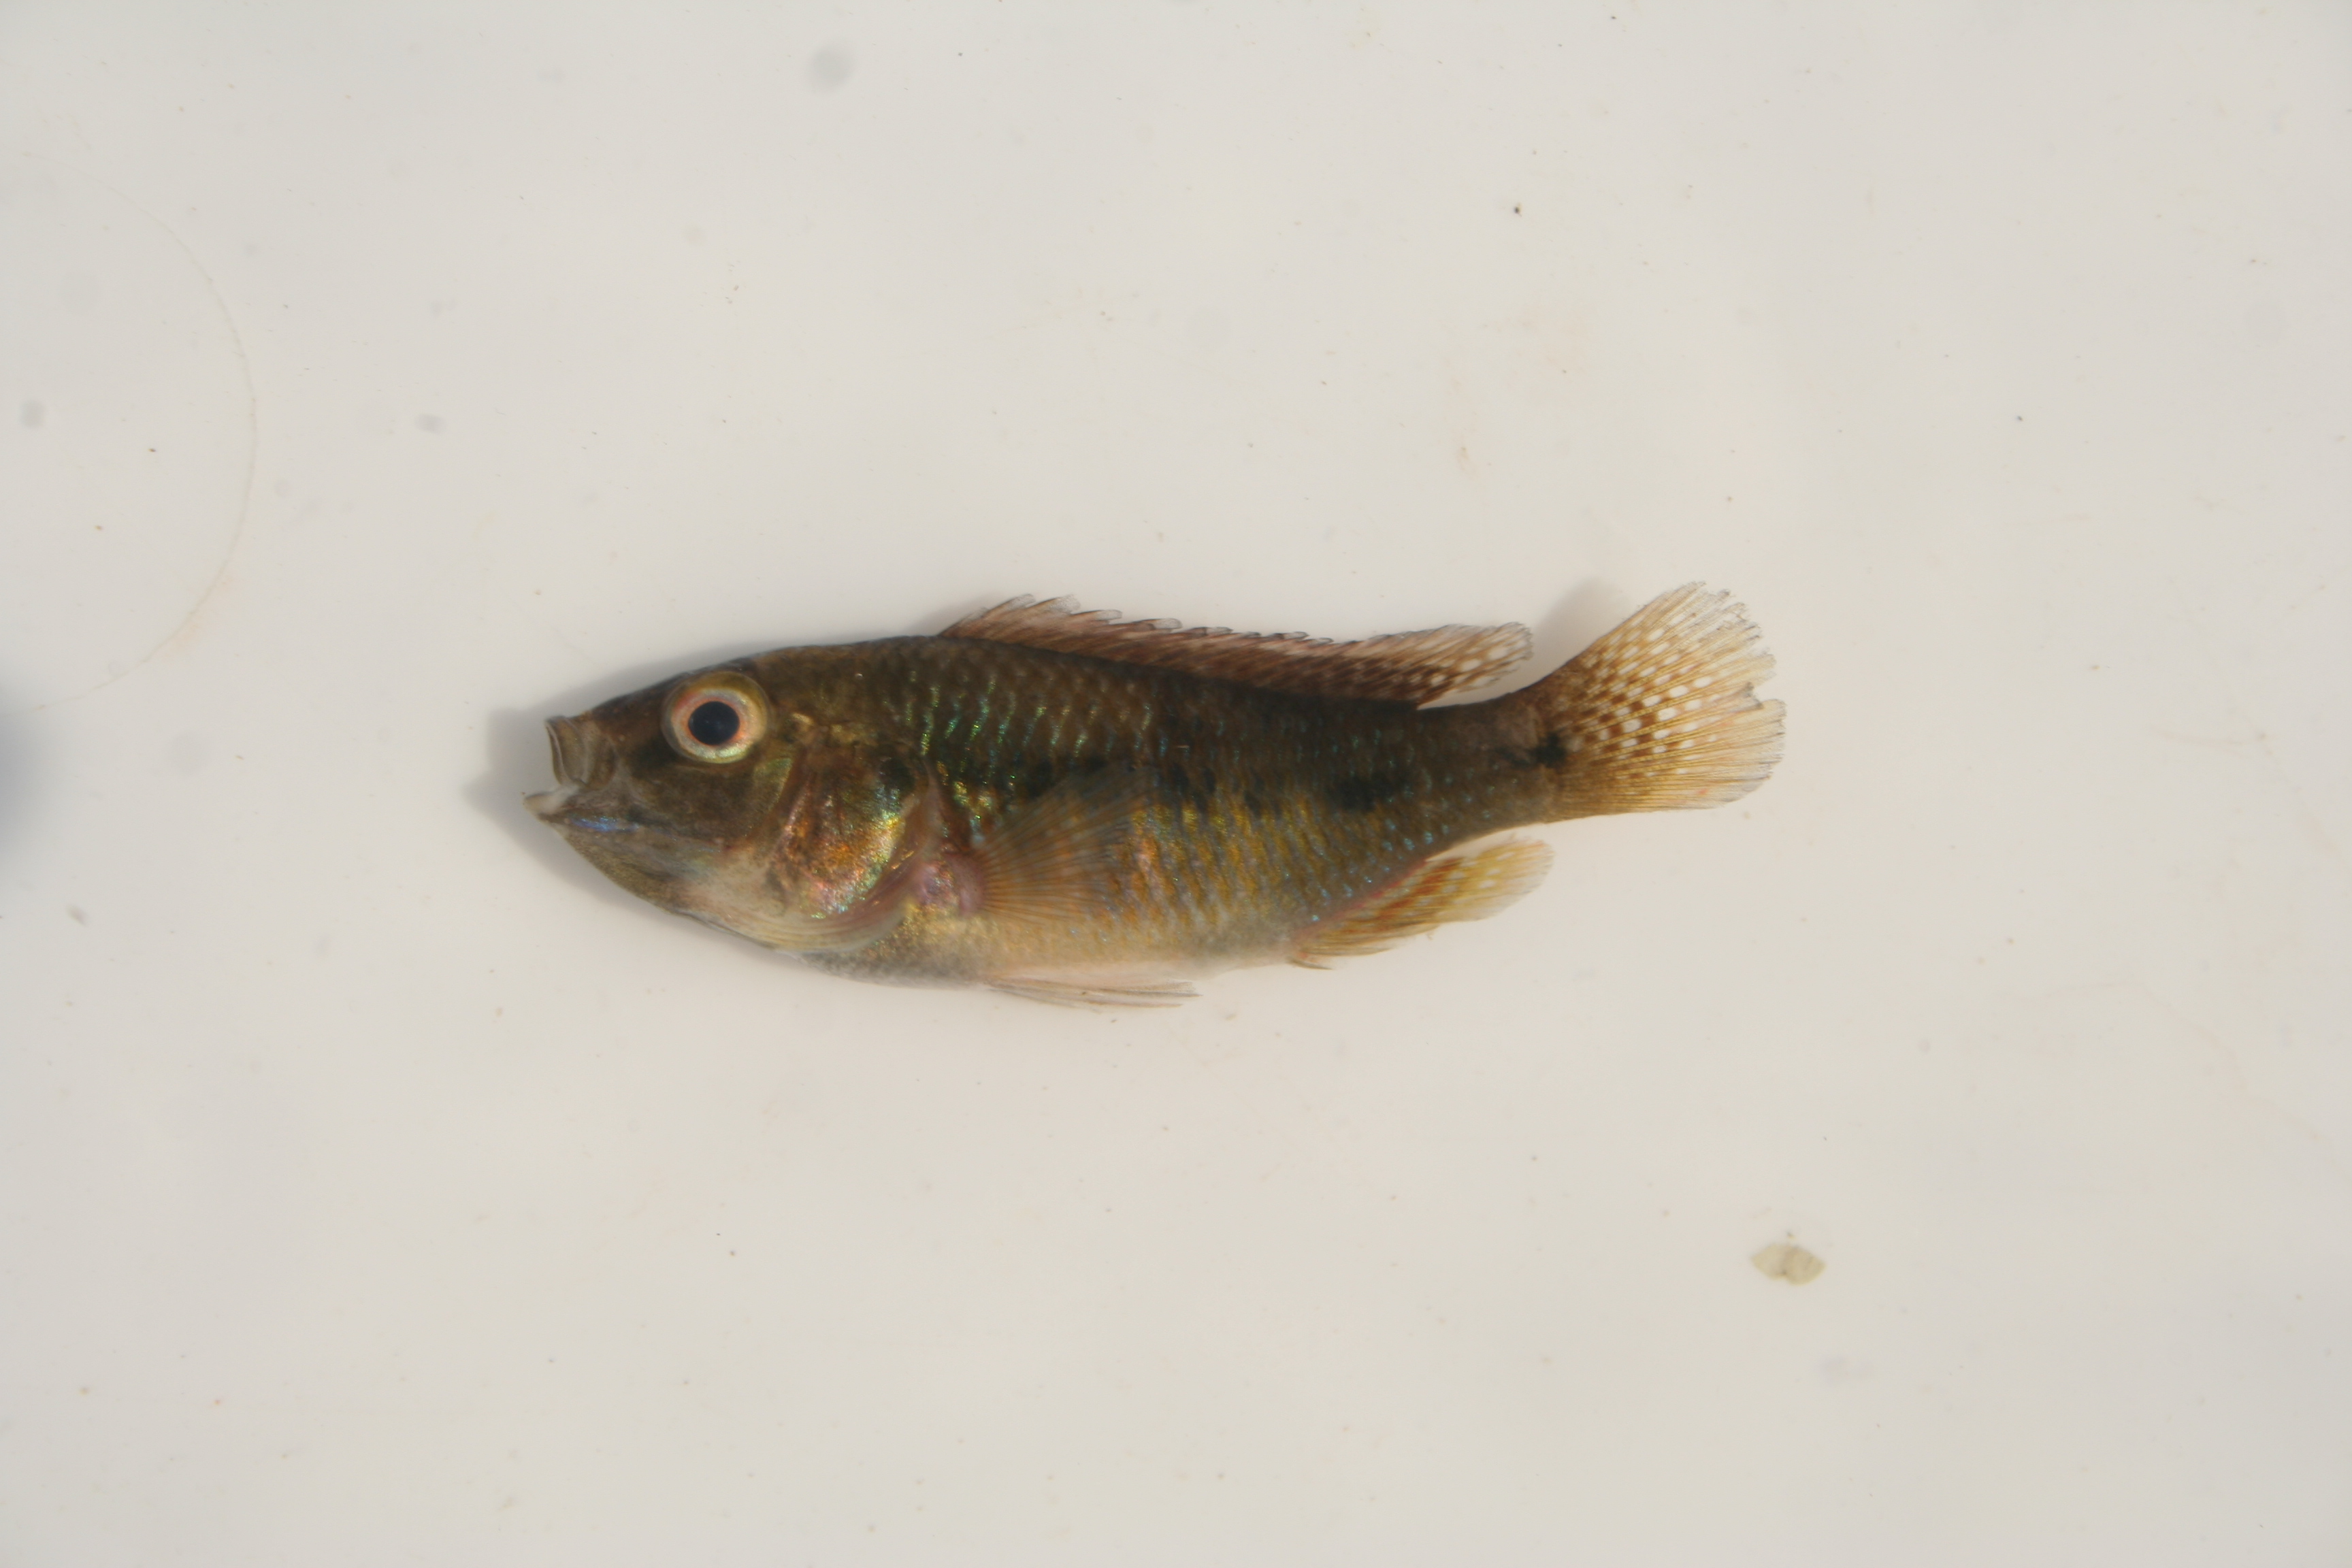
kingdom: Animalia
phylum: Chordata
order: Perciformes
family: Cichlidae
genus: Pseudocrenilabrus
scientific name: Pseudocrenilabrus philander
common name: Southern mouthbrooder
